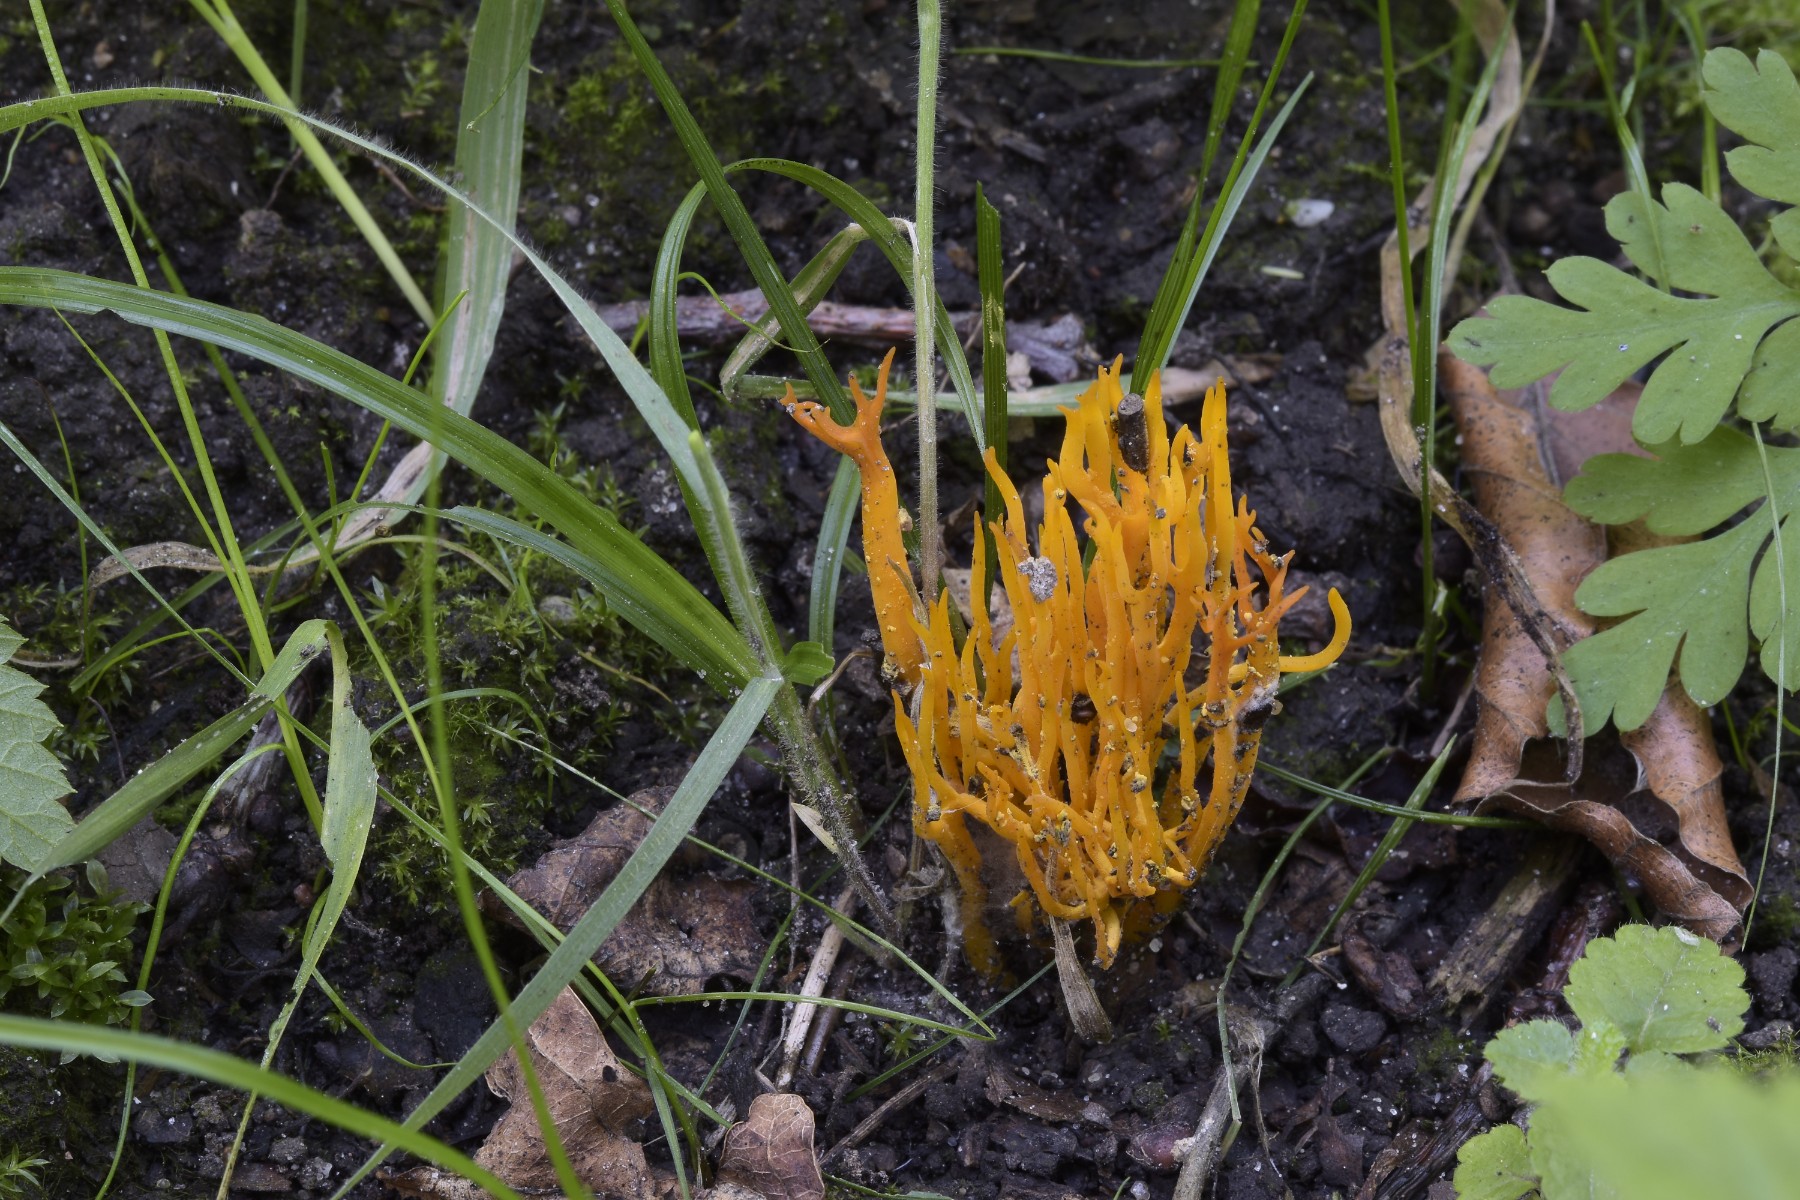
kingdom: Fungi
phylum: Basidiomycota
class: Dacrymycetes
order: Dacrymycetales
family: Dacrymycetaceae
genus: Calocera
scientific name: Calocera viscosa
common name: almindelig guldgaffel
